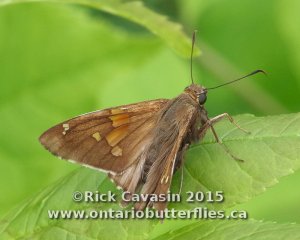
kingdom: Animalia
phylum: Arthropoda
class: Insecta
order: Lepidoptera
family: Hesperiidae
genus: Epargyreus
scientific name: Epargyreus clarus
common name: Silver-spotted Skipper
